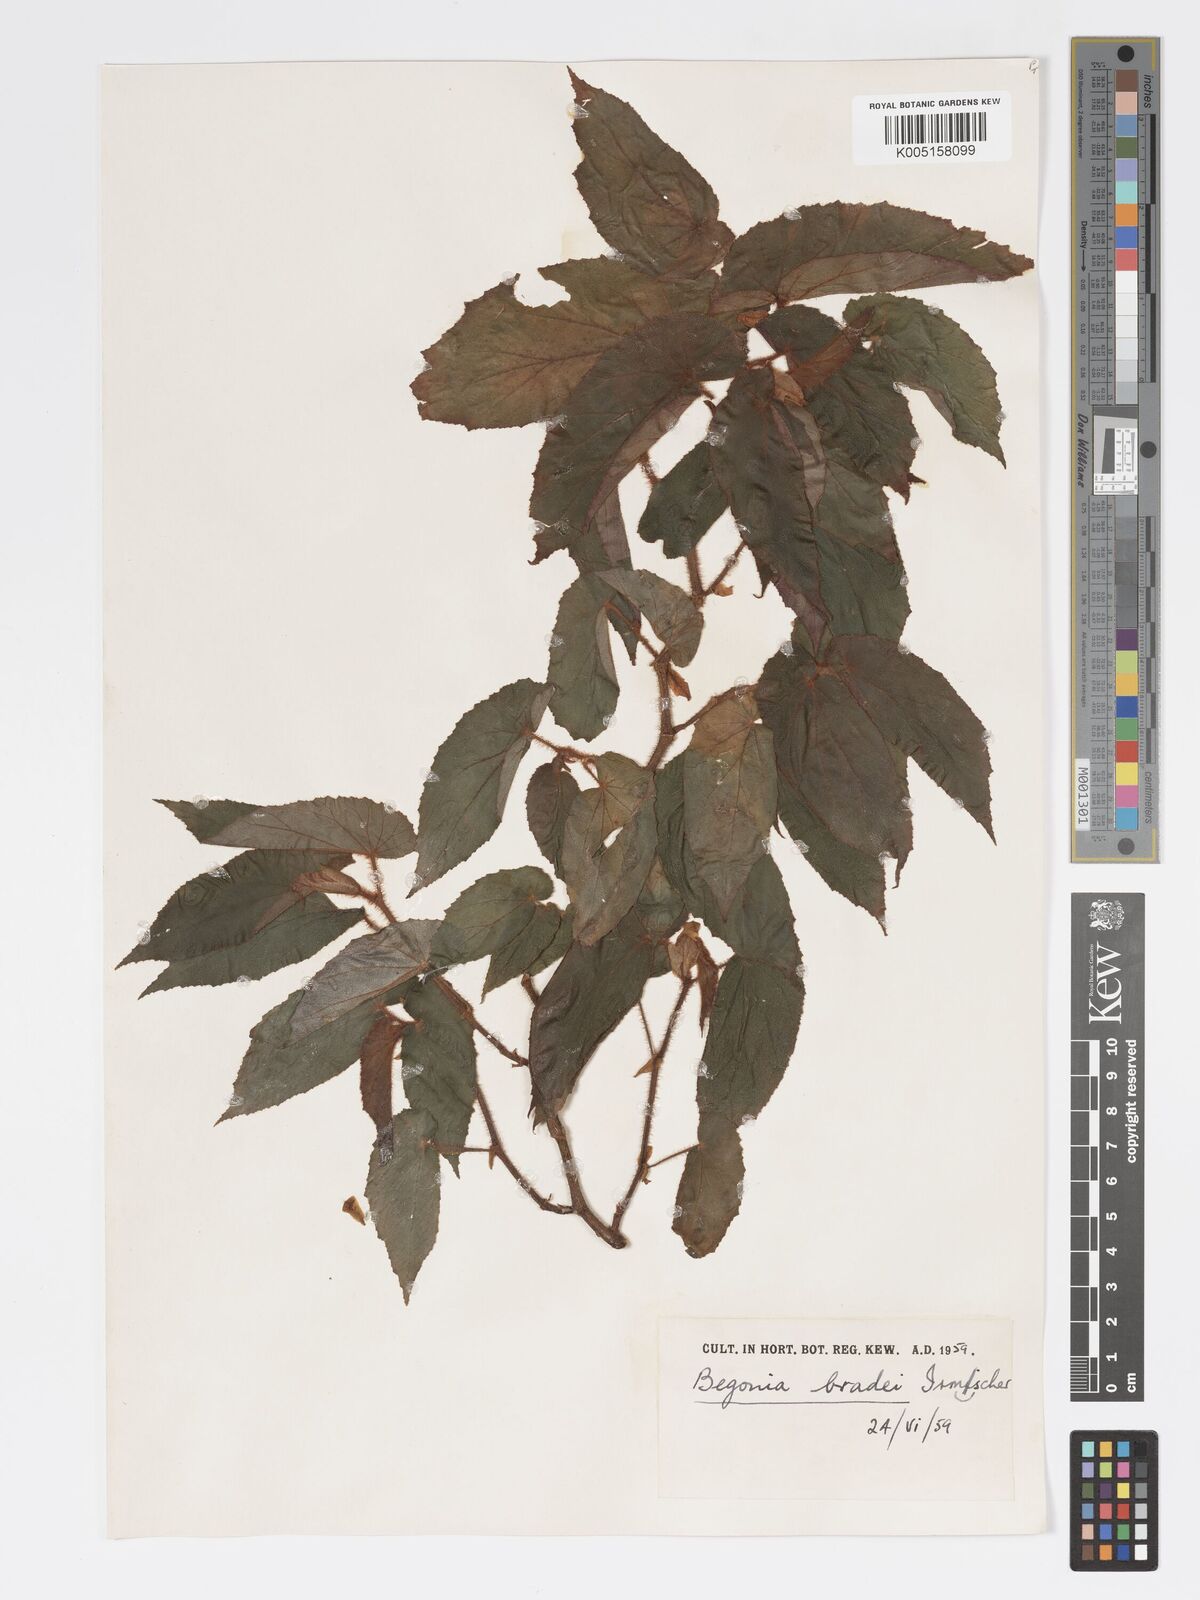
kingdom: Plantae
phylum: Tracheophyta
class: Magnoliopsida
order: Cucurbitales
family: Begoniaceae
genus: Begonia
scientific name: Begonia bradei
